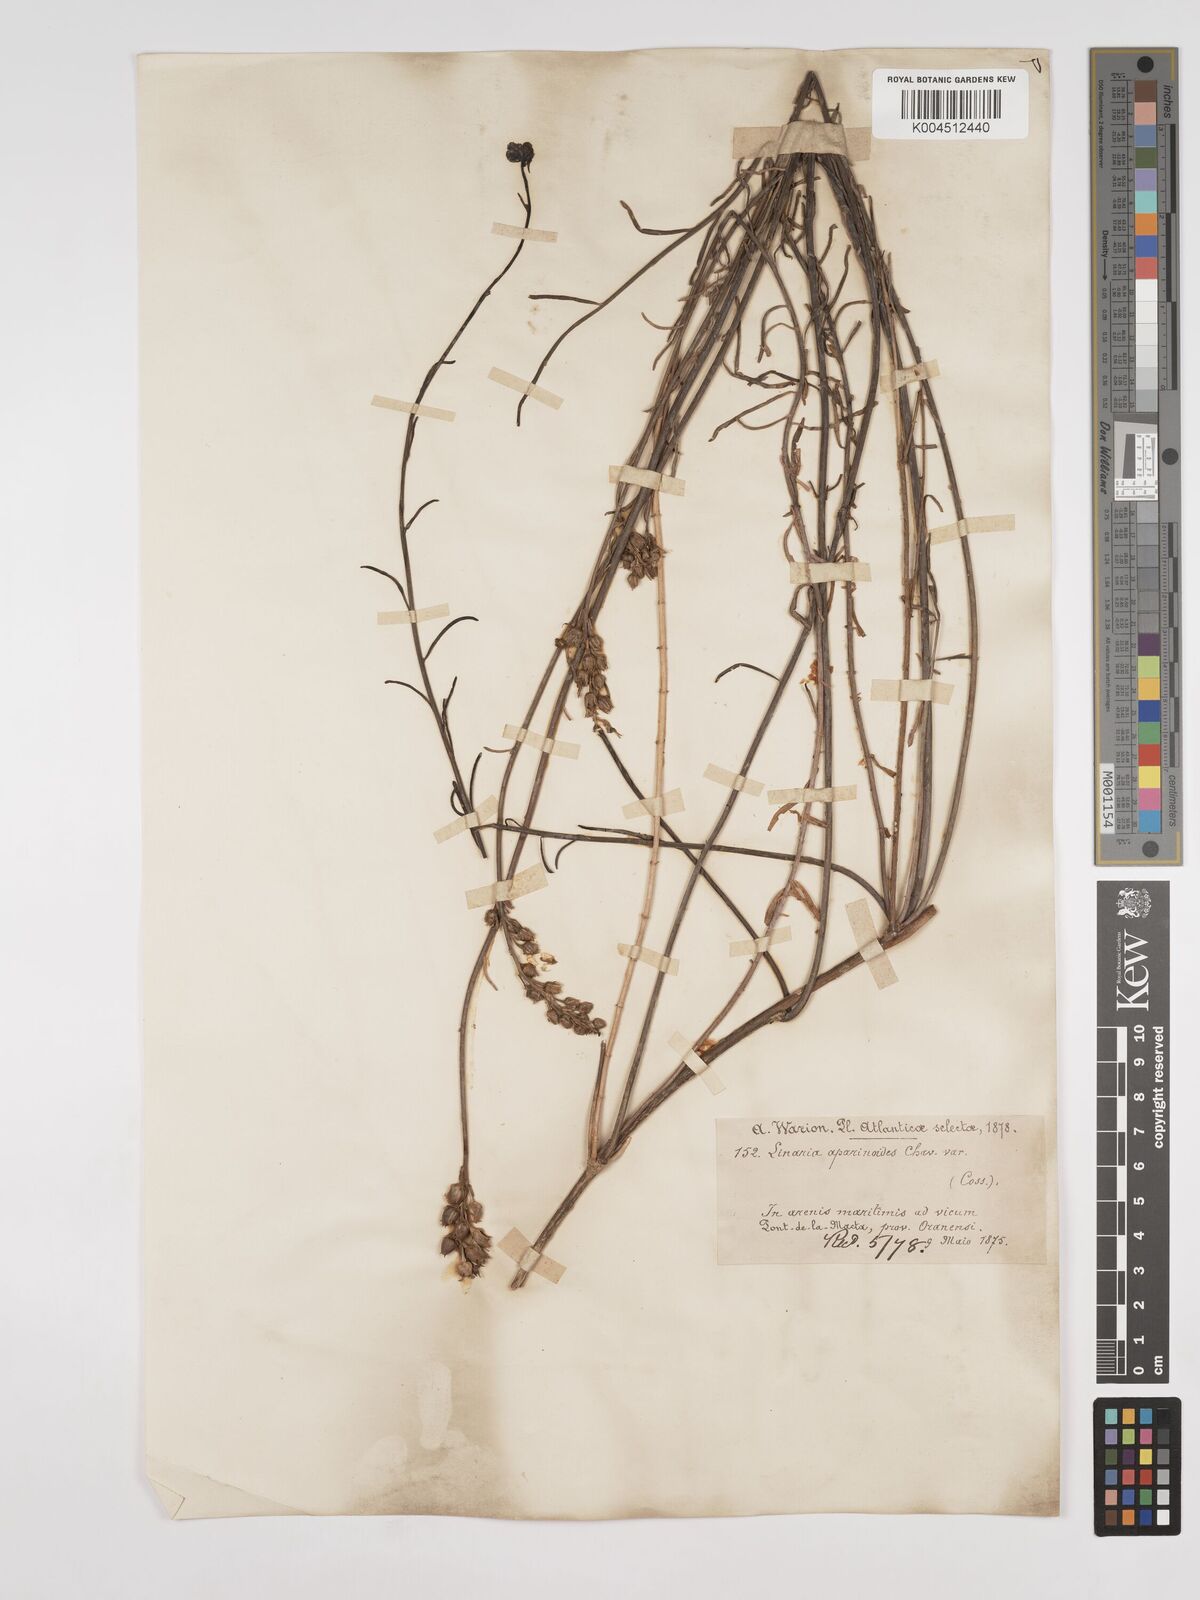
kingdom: Plantae
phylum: Tracheophyta
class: Magnoliopsida
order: Lamiales
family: Plantaginaceae
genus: Linaria
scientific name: Linaria multicaulis
